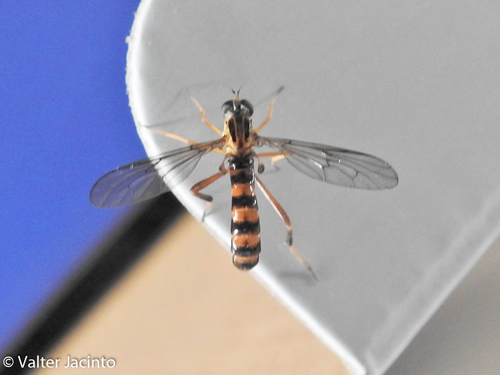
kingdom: Animalia
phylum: Arthropoda
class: Insecta
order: Diptera
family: Vermileonidae
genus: Vermileo
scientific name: Vermileo vermileo
